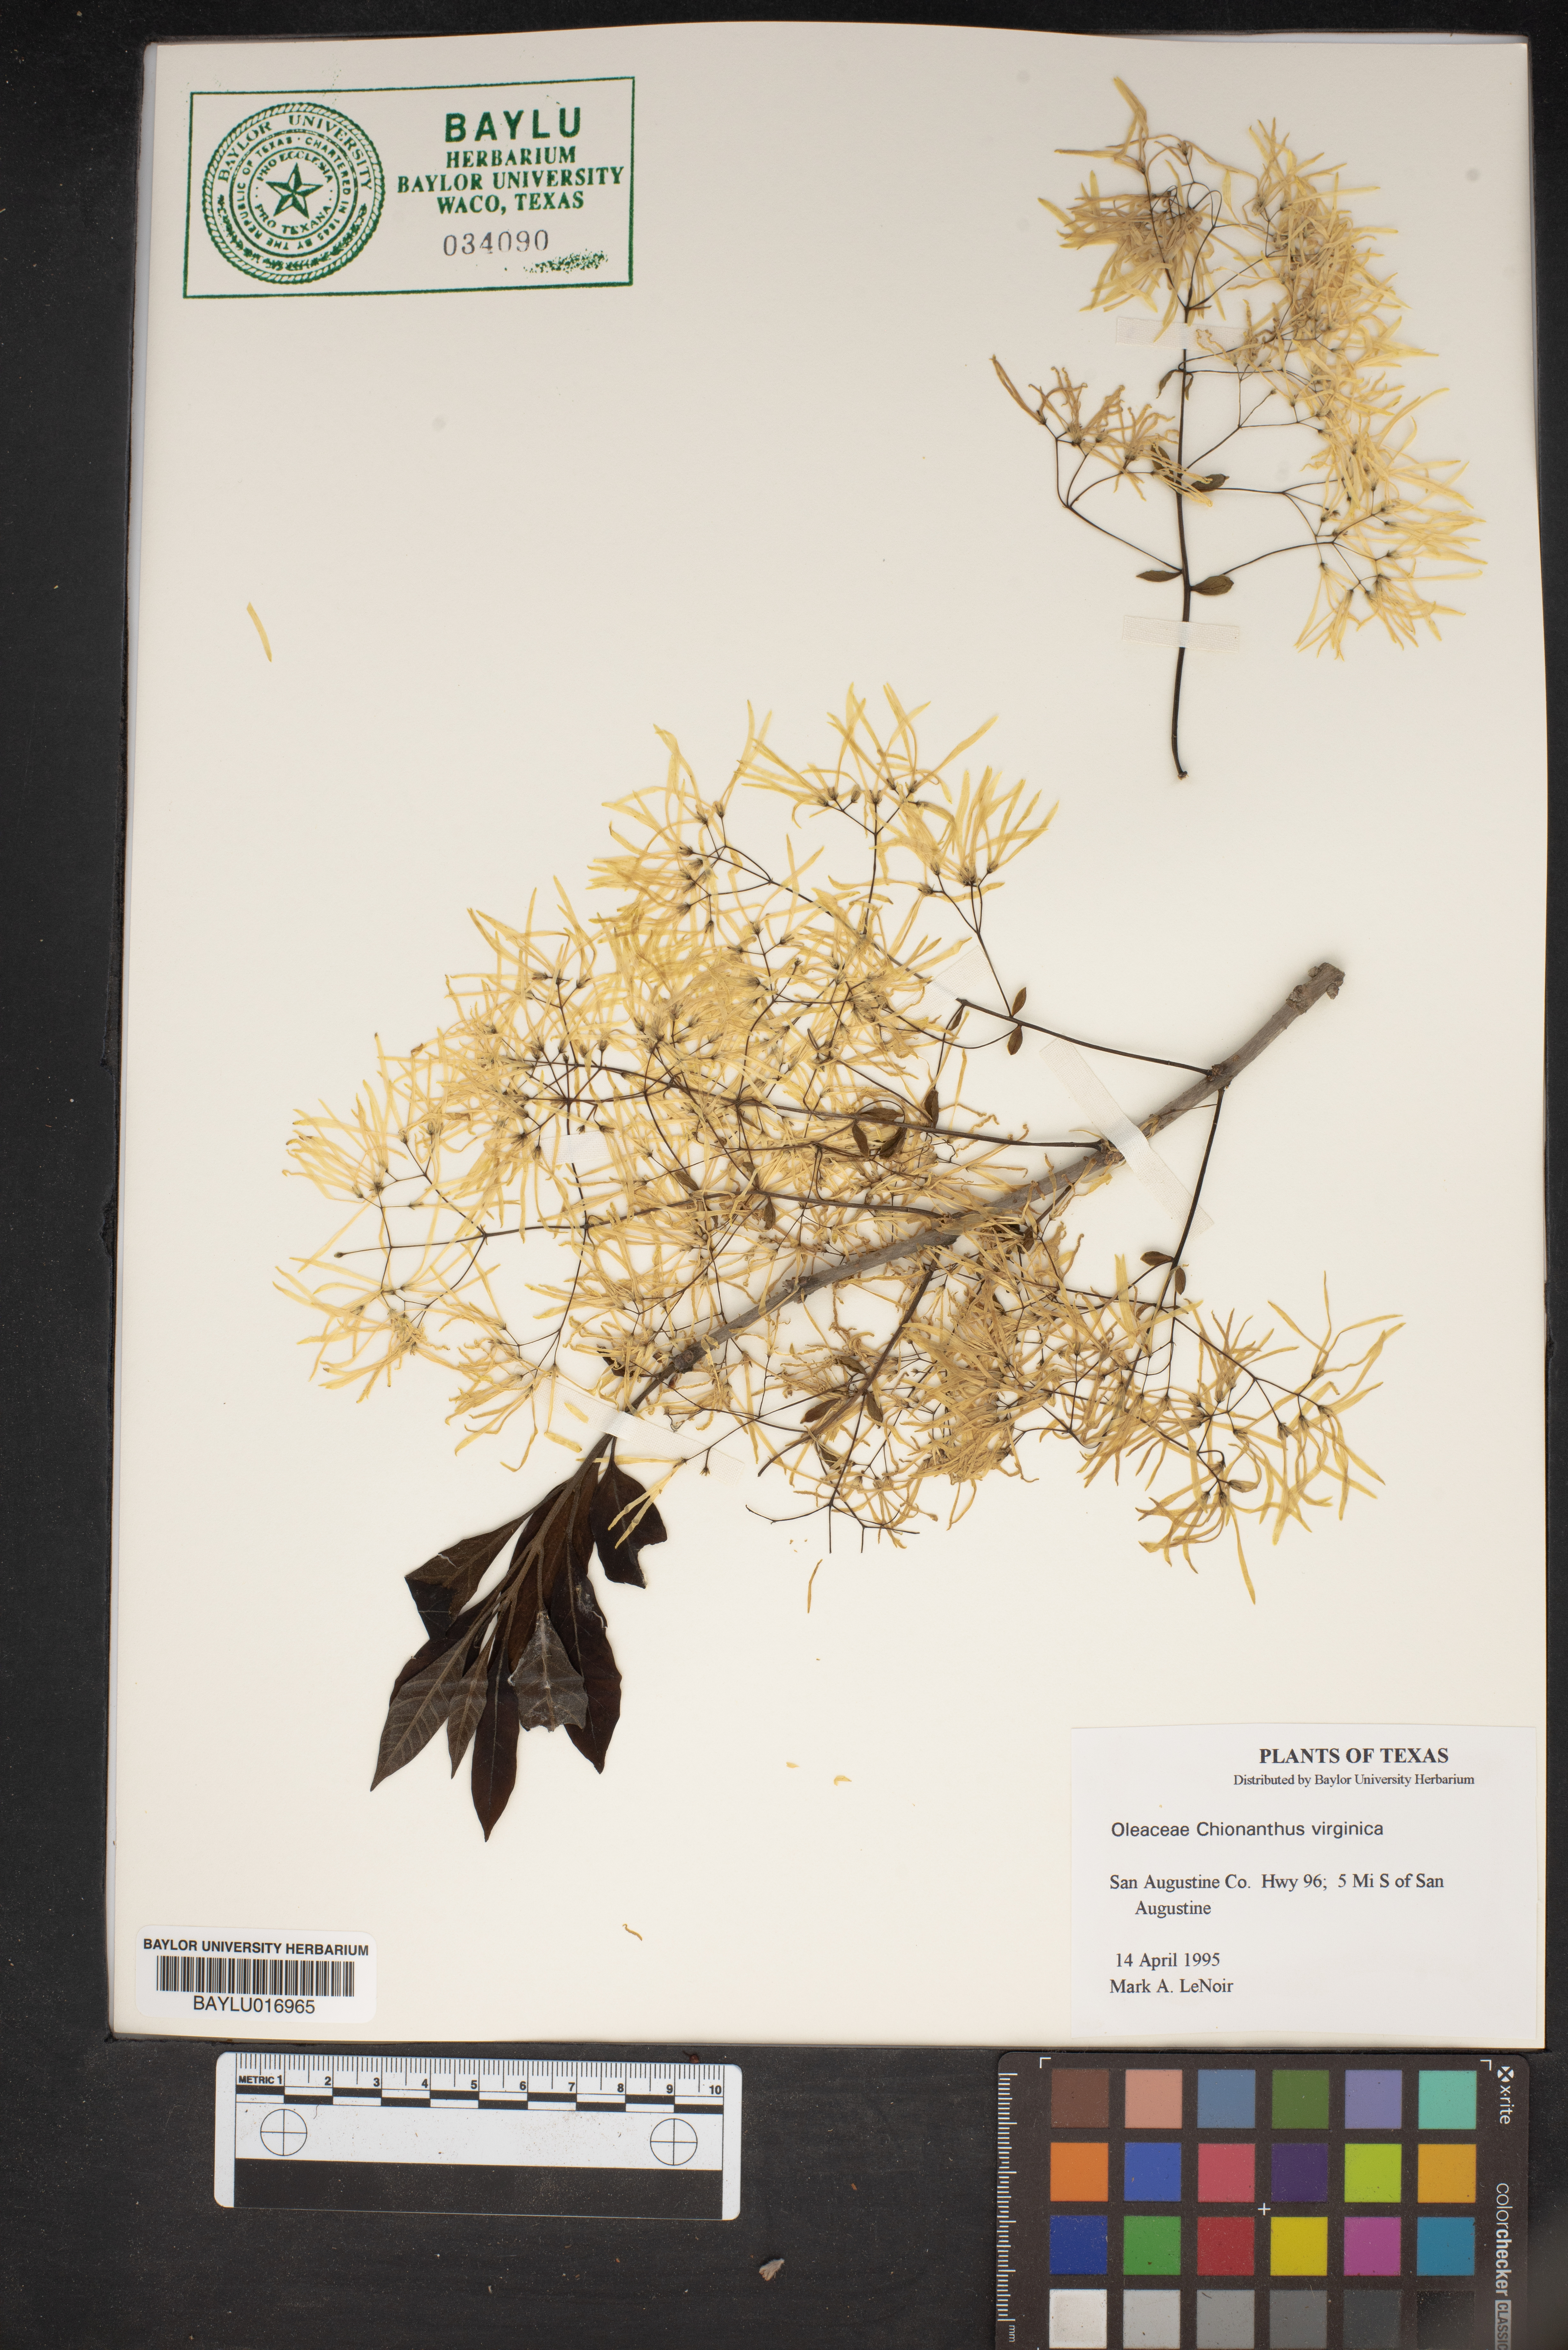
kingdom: Plantae
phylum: Tracheophyta
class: Magnoliopsida
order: Lamiales
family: Oleaceae
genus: Chionanthus
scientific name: Chionanthus virginicus
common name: American fringetree
